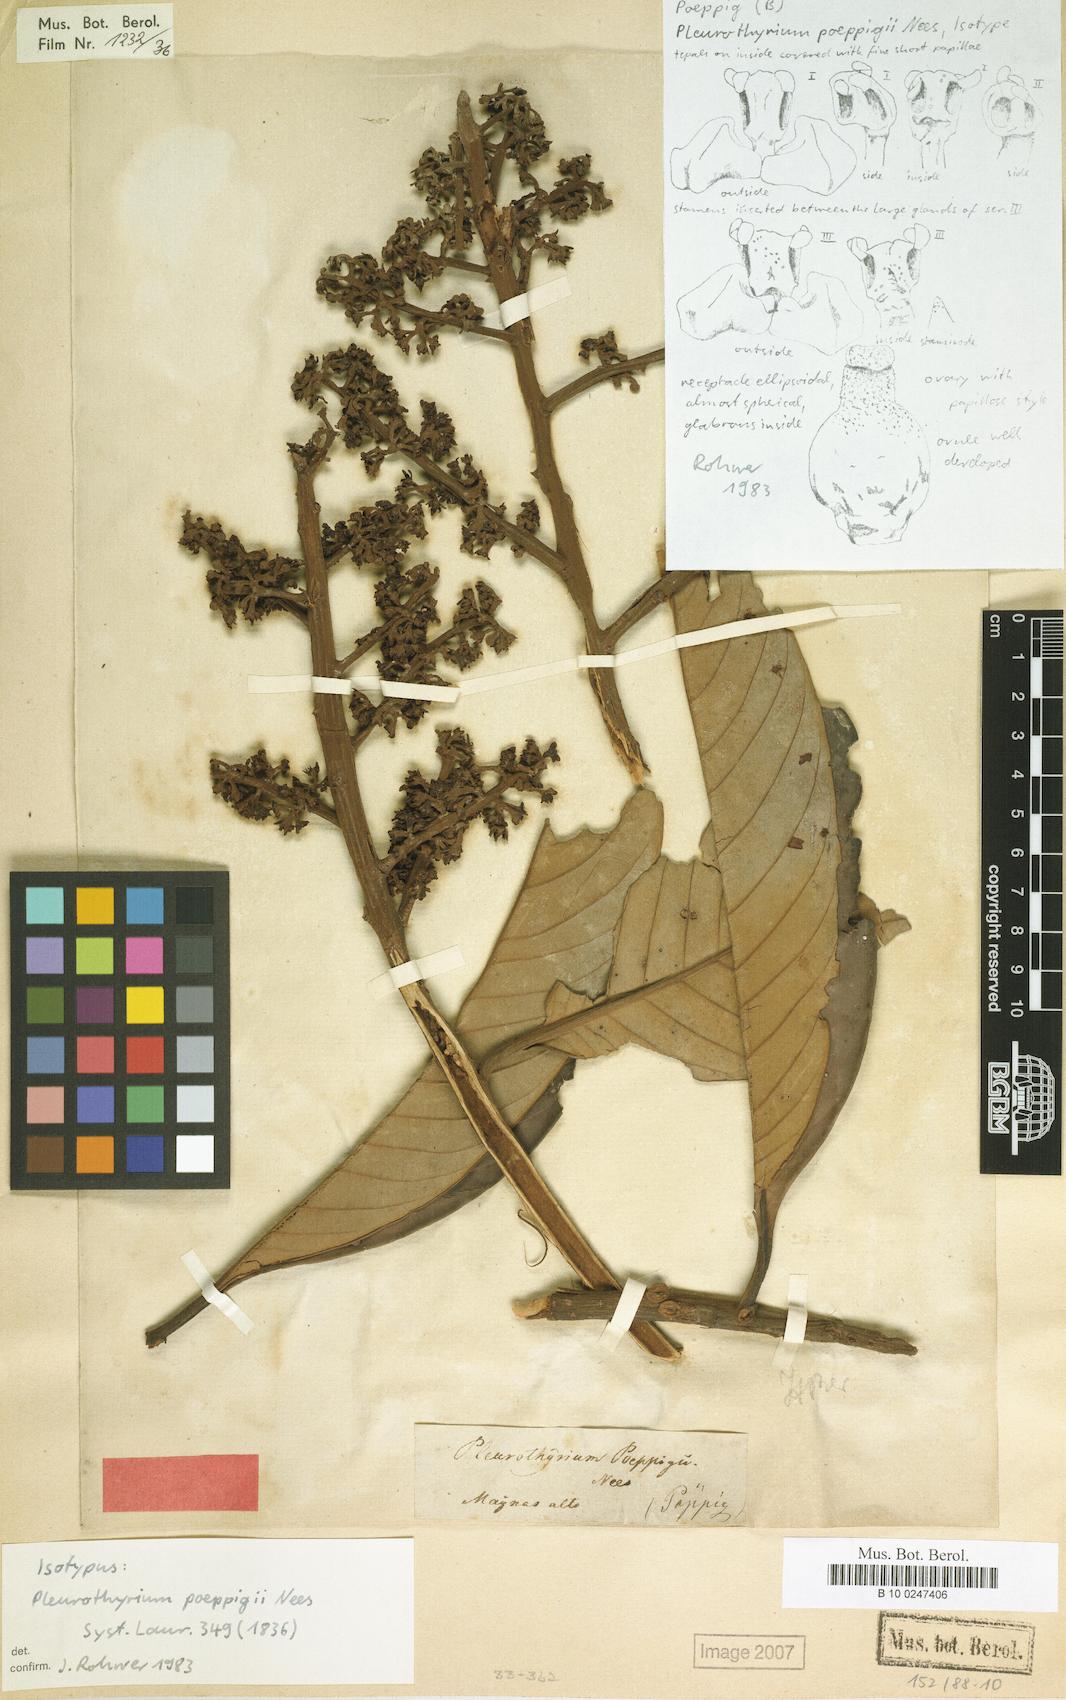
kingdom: Plantae
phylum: Tracheophyta
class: Magnoliopsida
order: Laurales
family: Lauraceae
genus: Pleurothyrium
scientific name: Pleurothyrium poeppigii
